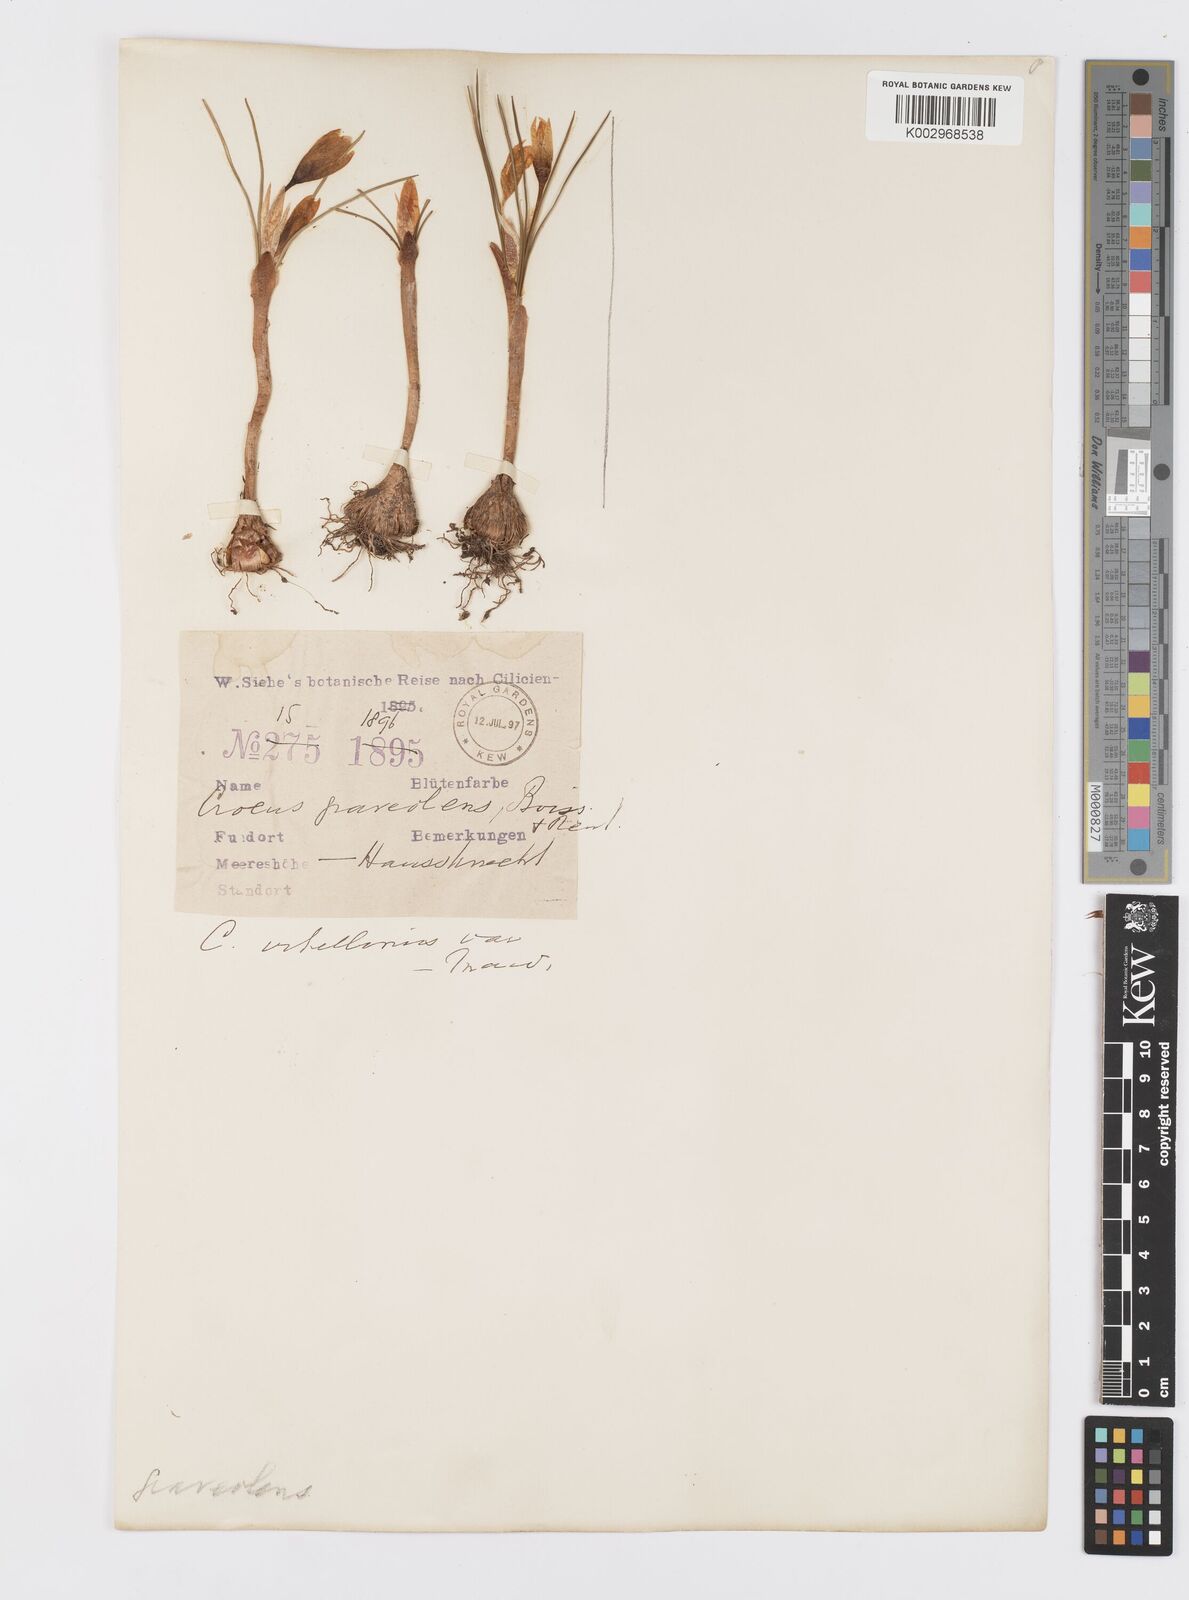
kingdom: Plantae
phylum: Tracheophyta
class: Liliopsida
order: Asparagales
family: Iridaceae
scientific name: Iridaceae
